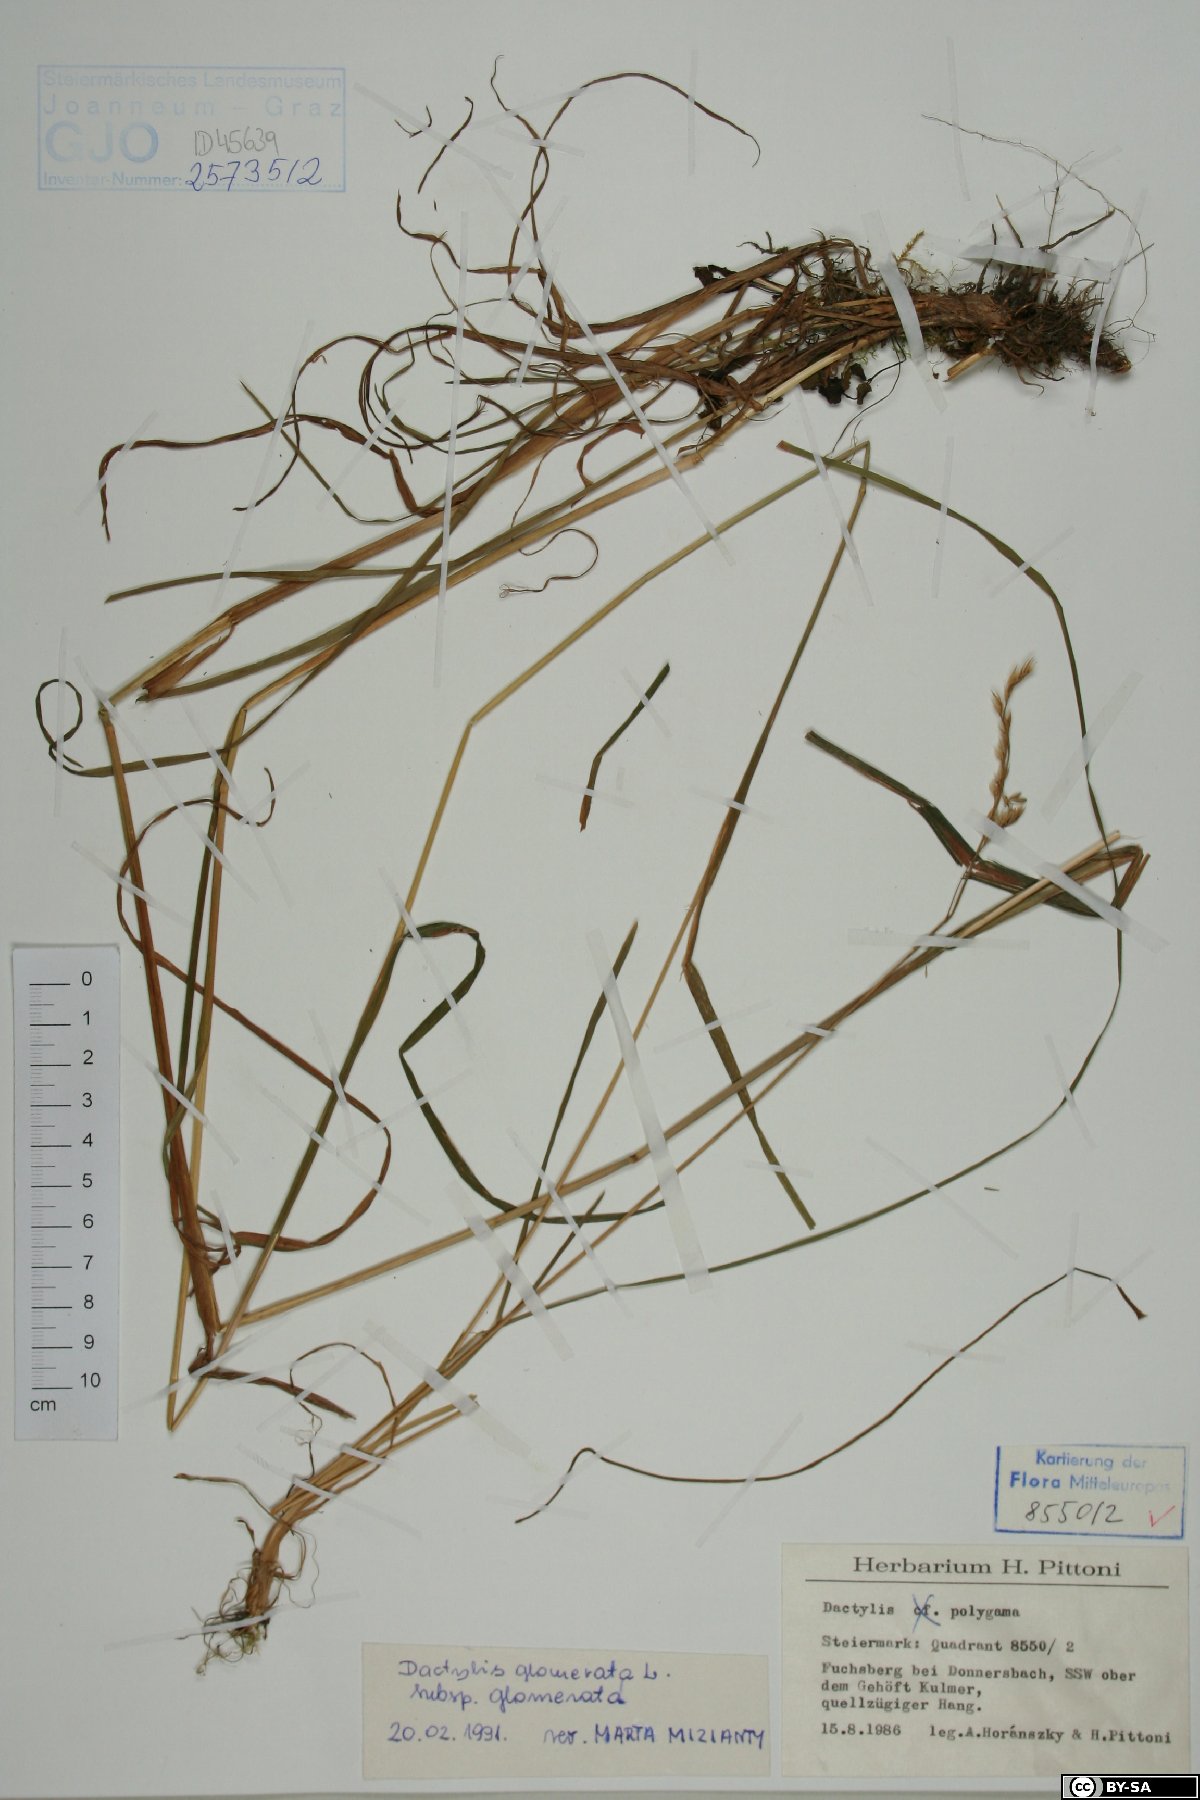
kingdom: Plantae
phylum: Tracheophyta
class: Liliopsida
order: Poales
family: Poaceae
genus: Dactylis
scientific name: Dactylis glomerata
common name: Orchardgrass
